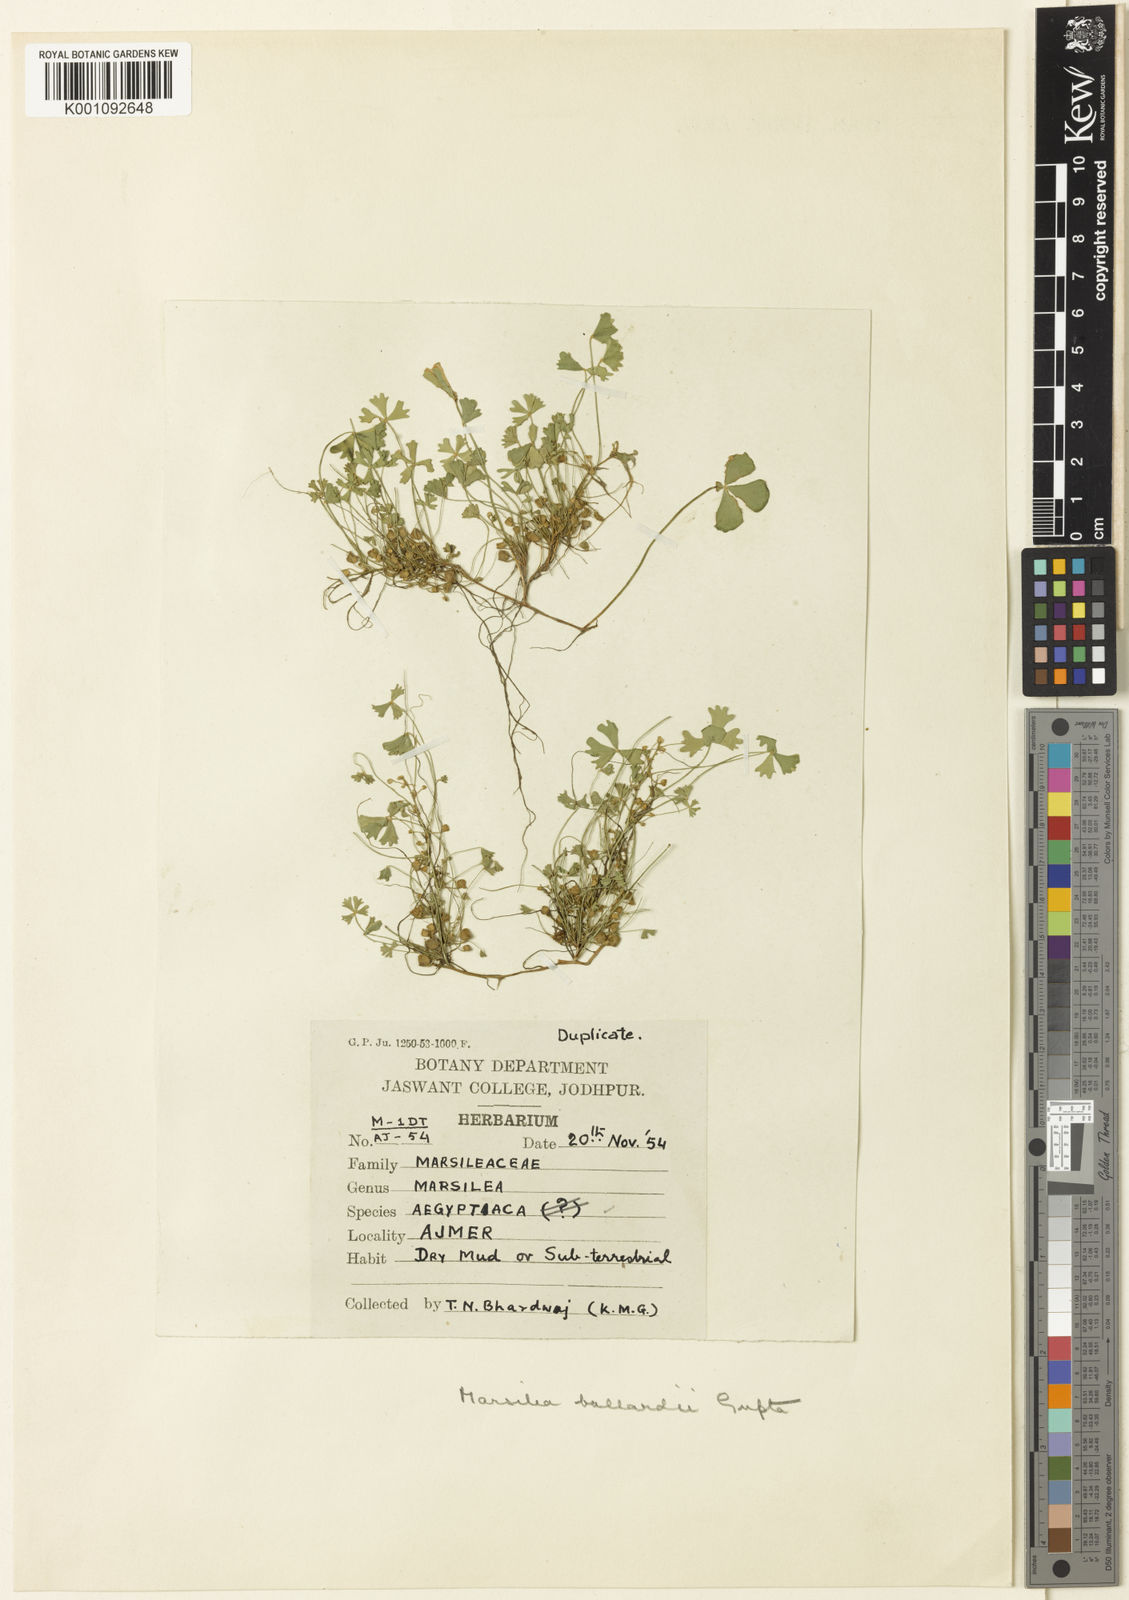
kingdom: Plantae
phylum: Tracheophyta
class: Polypodiopsida
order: Salviniales
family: Marsileaceae
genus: Marsilea
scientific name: Marsilea aegyptiaca
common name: Egyptian water-clover
